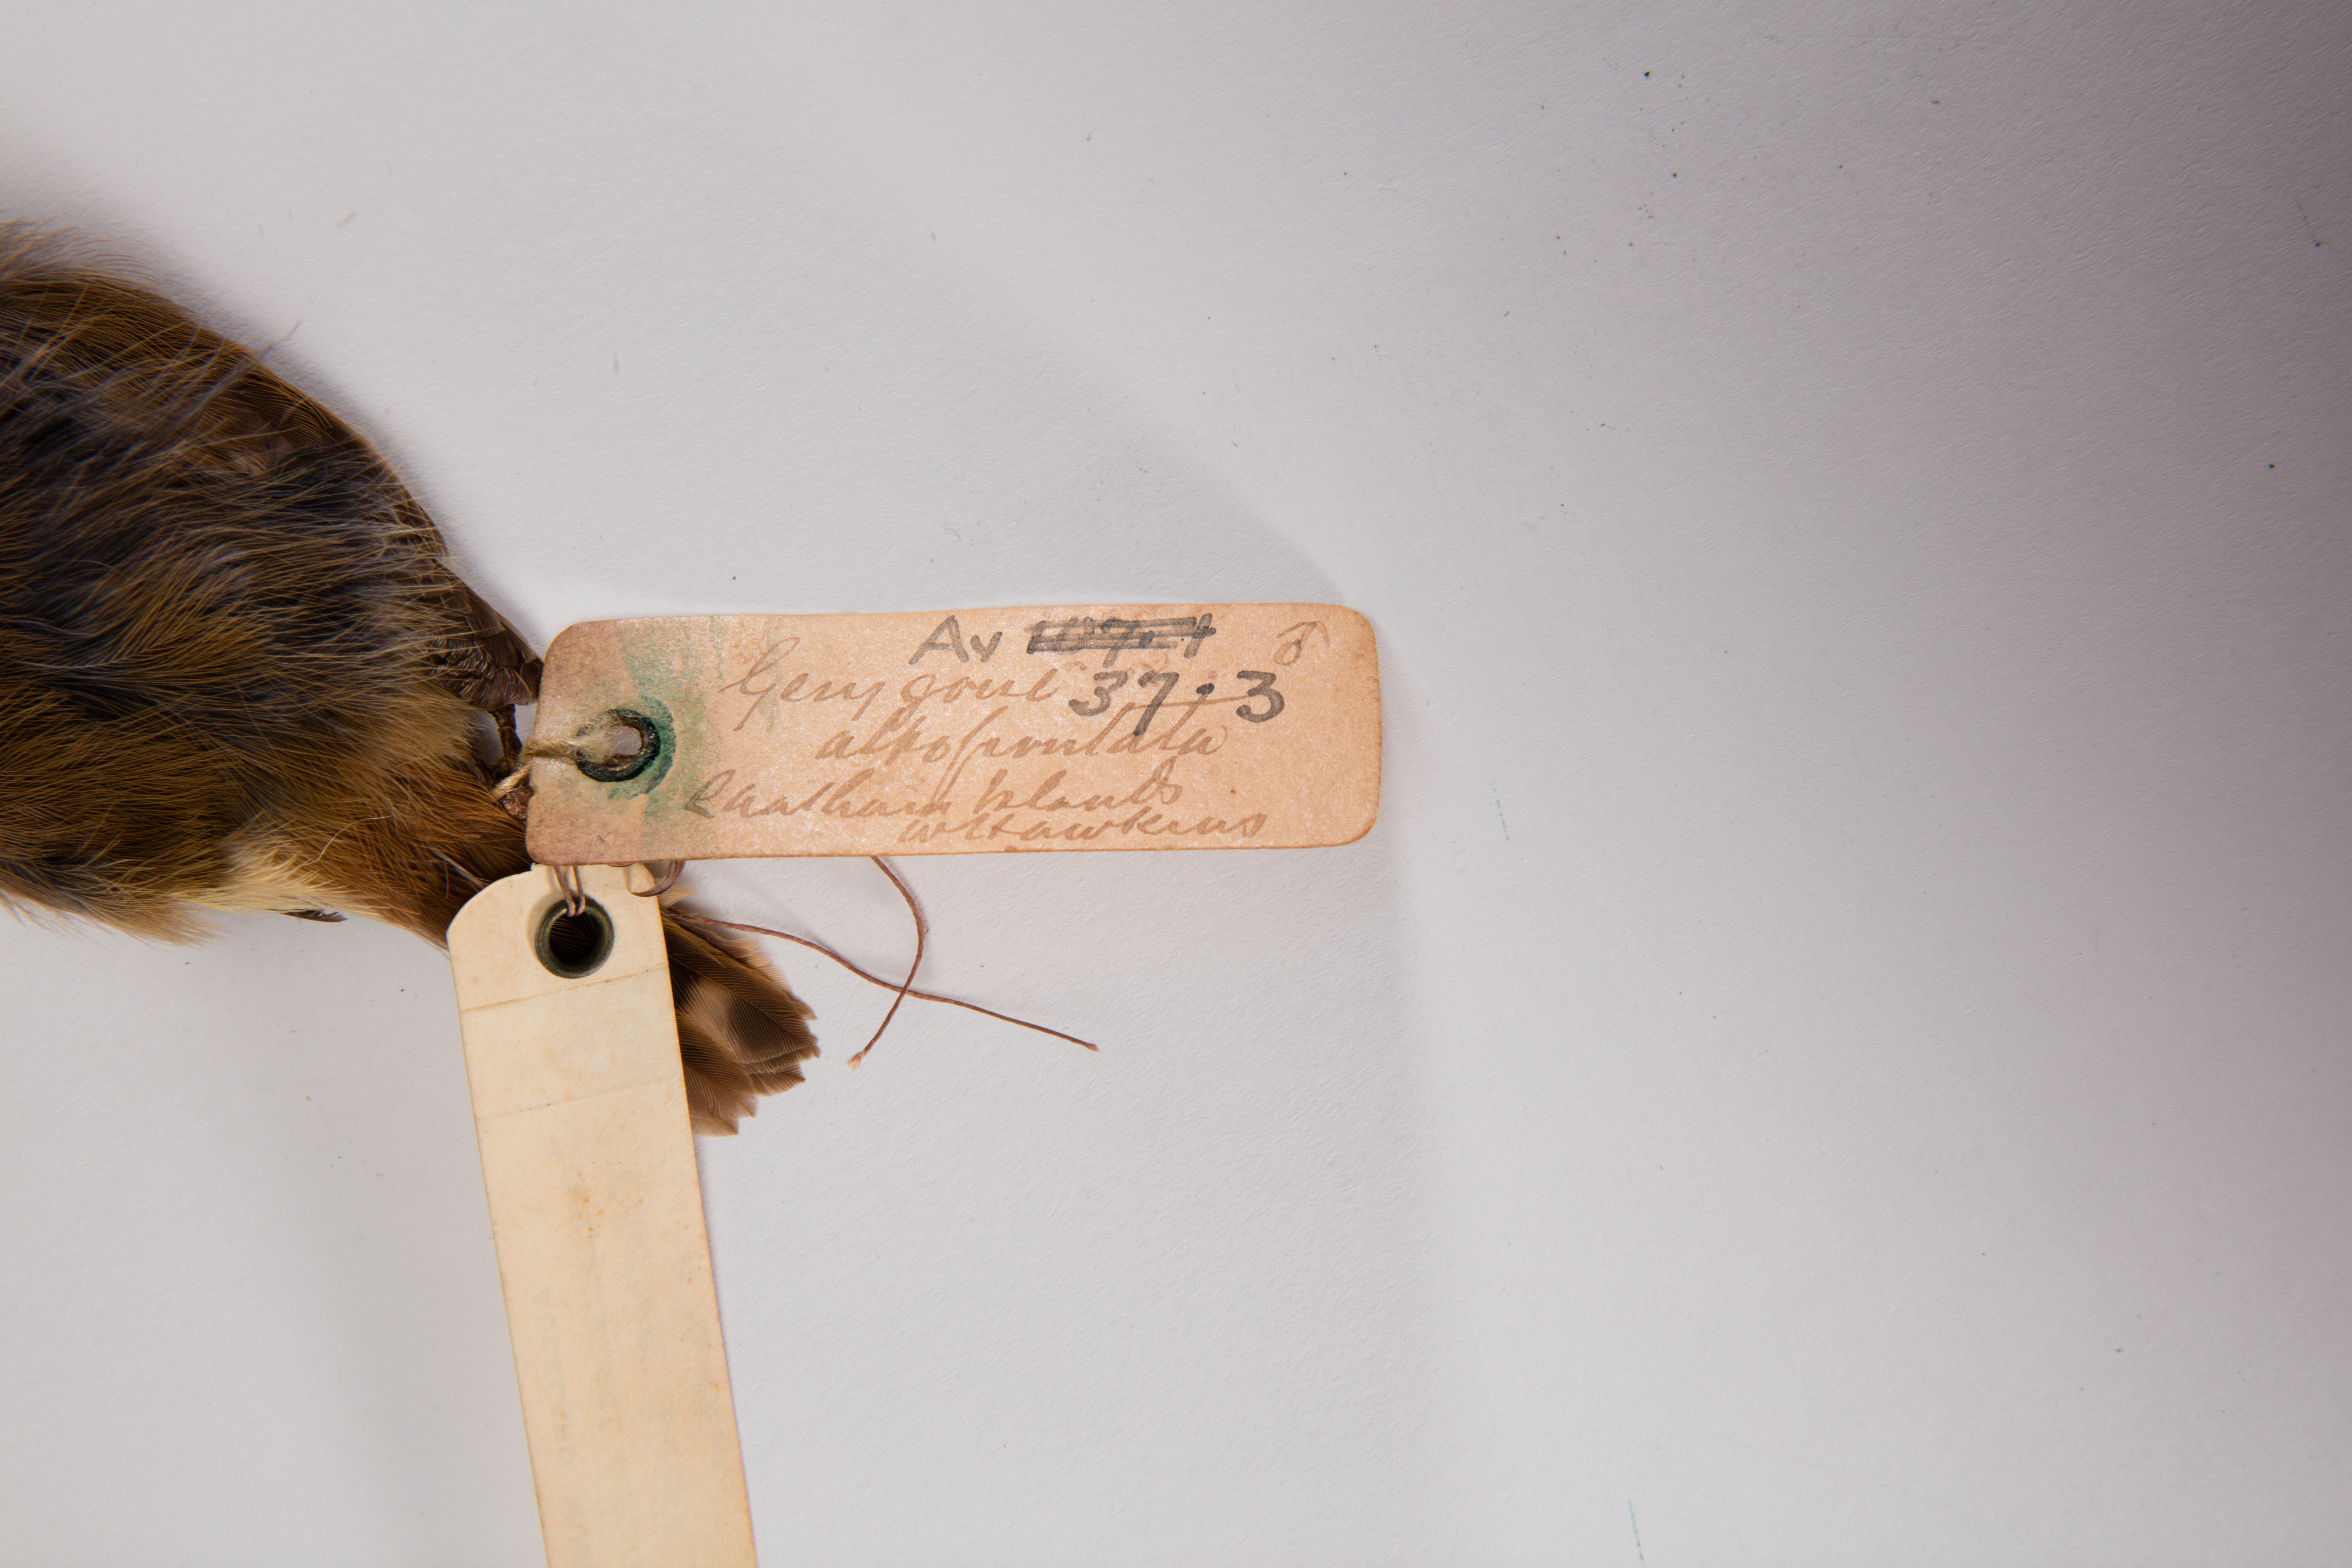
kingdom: Animalia
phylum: Chordata
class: Aves
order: Passeriformes
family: Acanthizidae
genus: Gerygone
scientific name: Gerygone albofrontata
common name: Chatham gerygone
